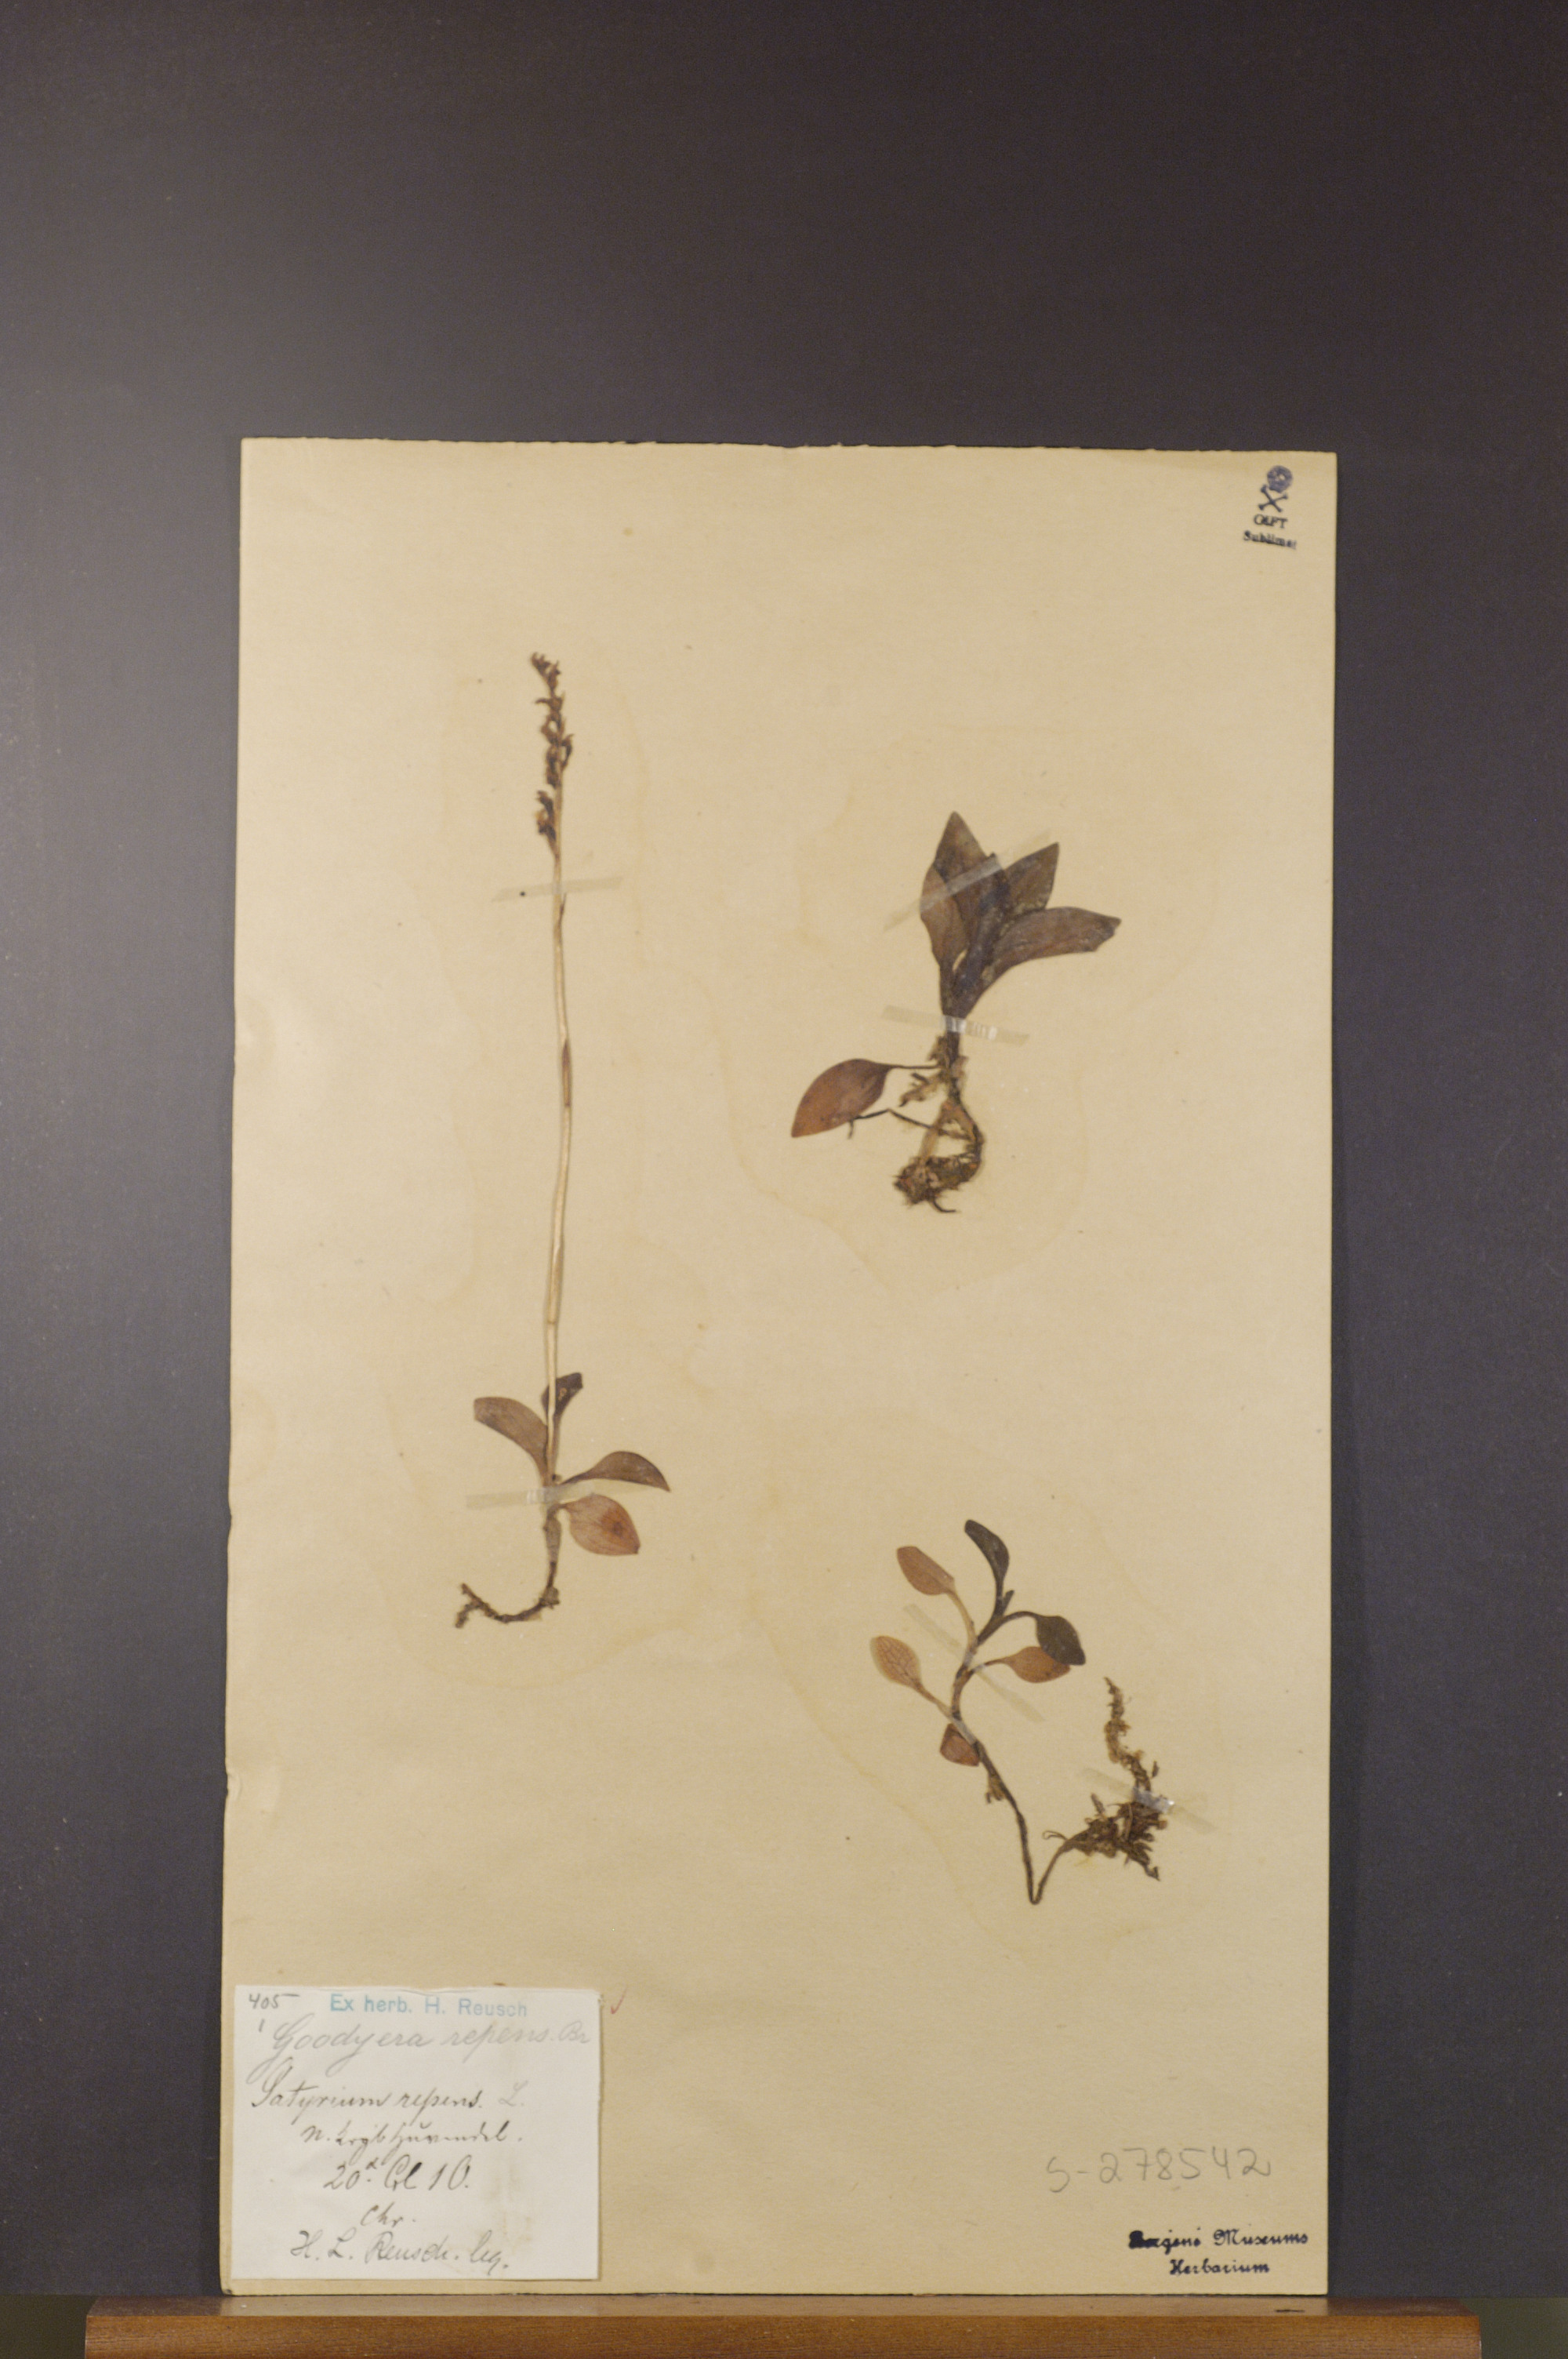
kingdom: Plantae
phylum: Tracheophyta
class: Liliopsida
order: Asparagales
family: Orchidaceae
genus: Goodyera
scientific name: Goodyera repens
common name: Creeping lady's-tresses
